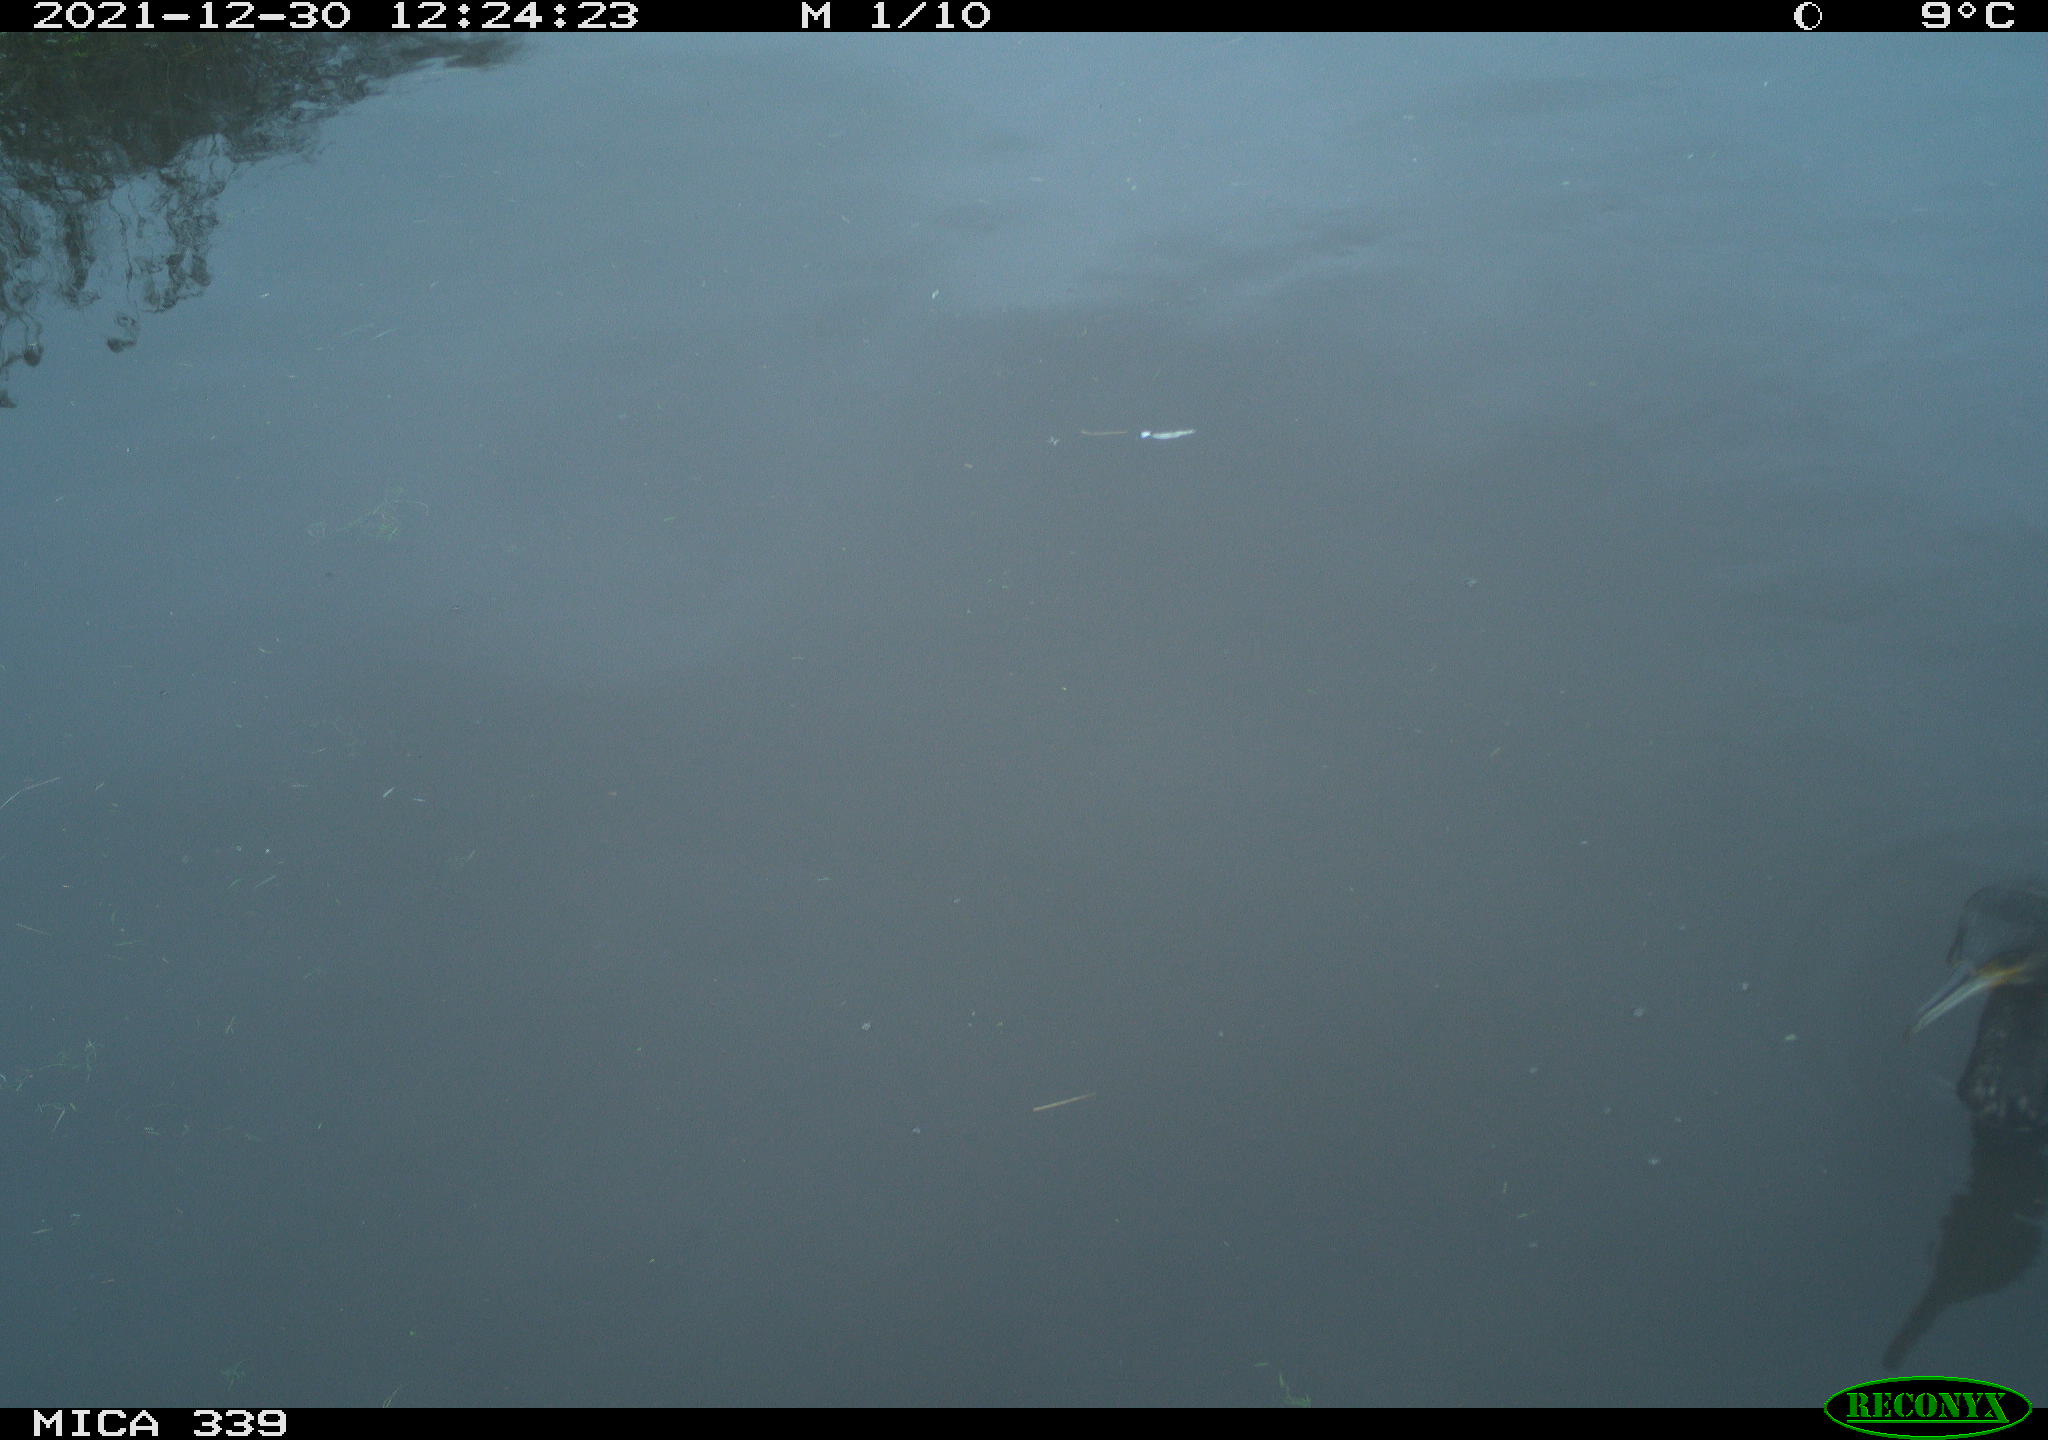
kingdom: Animalia
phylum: Chordata
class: Aves
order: Suliformes
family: Phalacrocoracidae
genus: Phalacrocorax
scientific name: Phalacrocorax carbo
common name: Great cormorant
